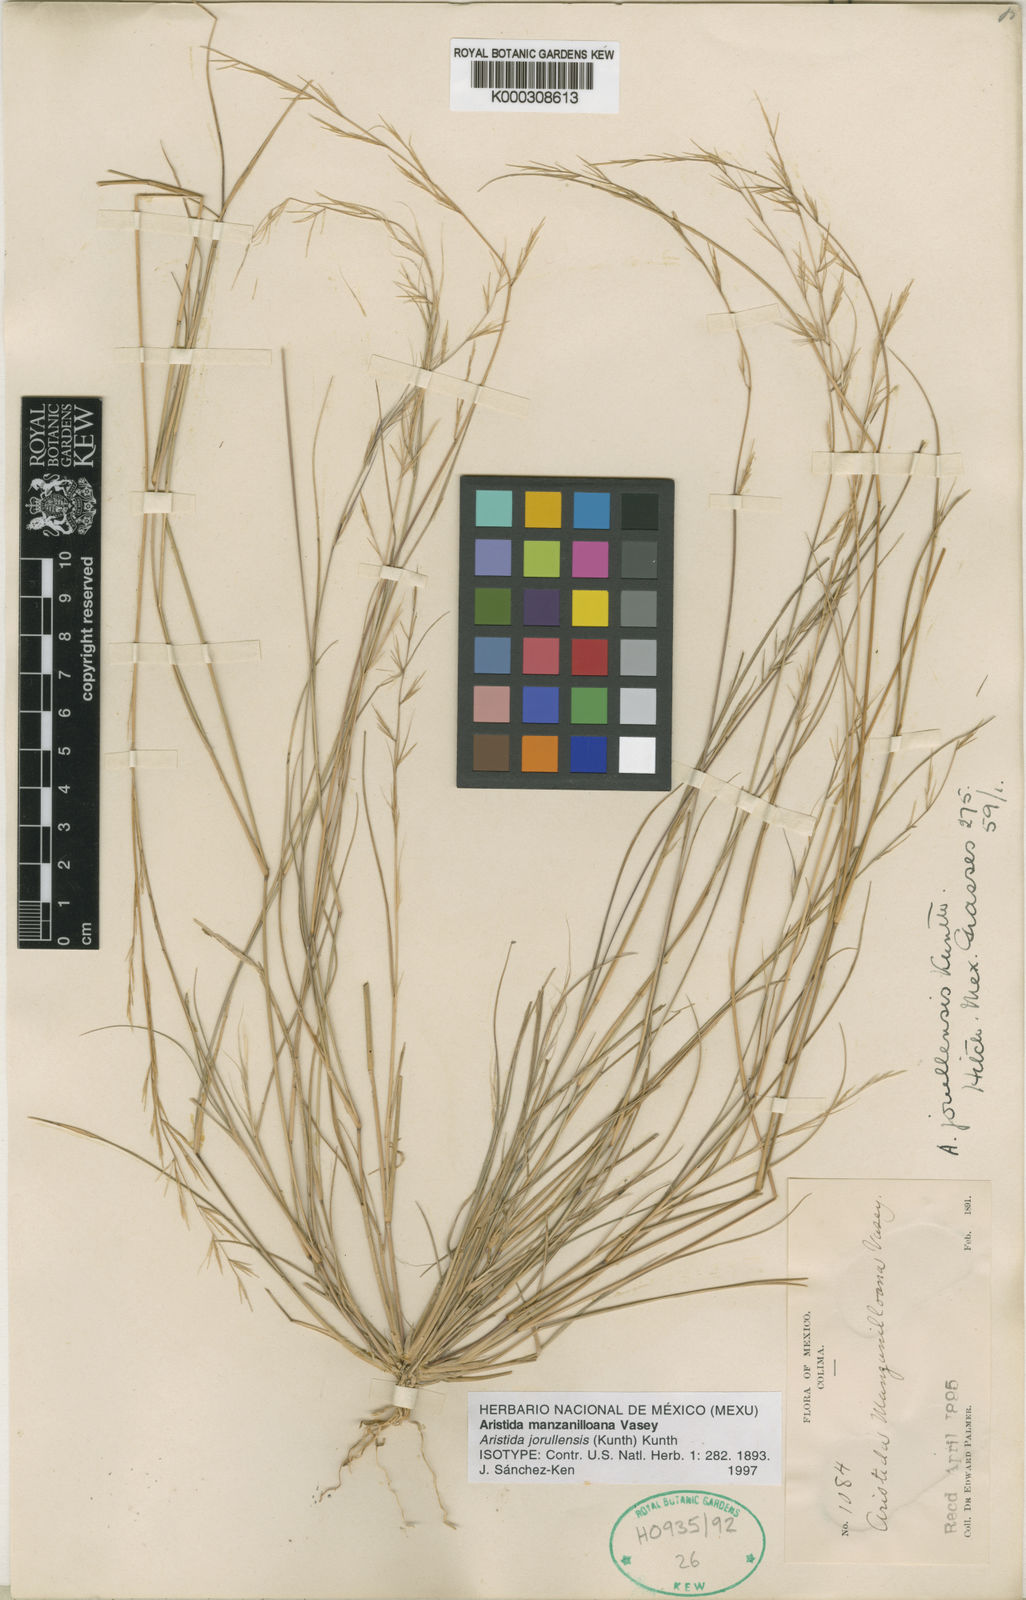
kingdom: Plantae
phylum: Tracheophyta
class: Liliopsida
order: Poales
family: Poaceae
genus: Aristida
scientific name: Aristida jorullensis
